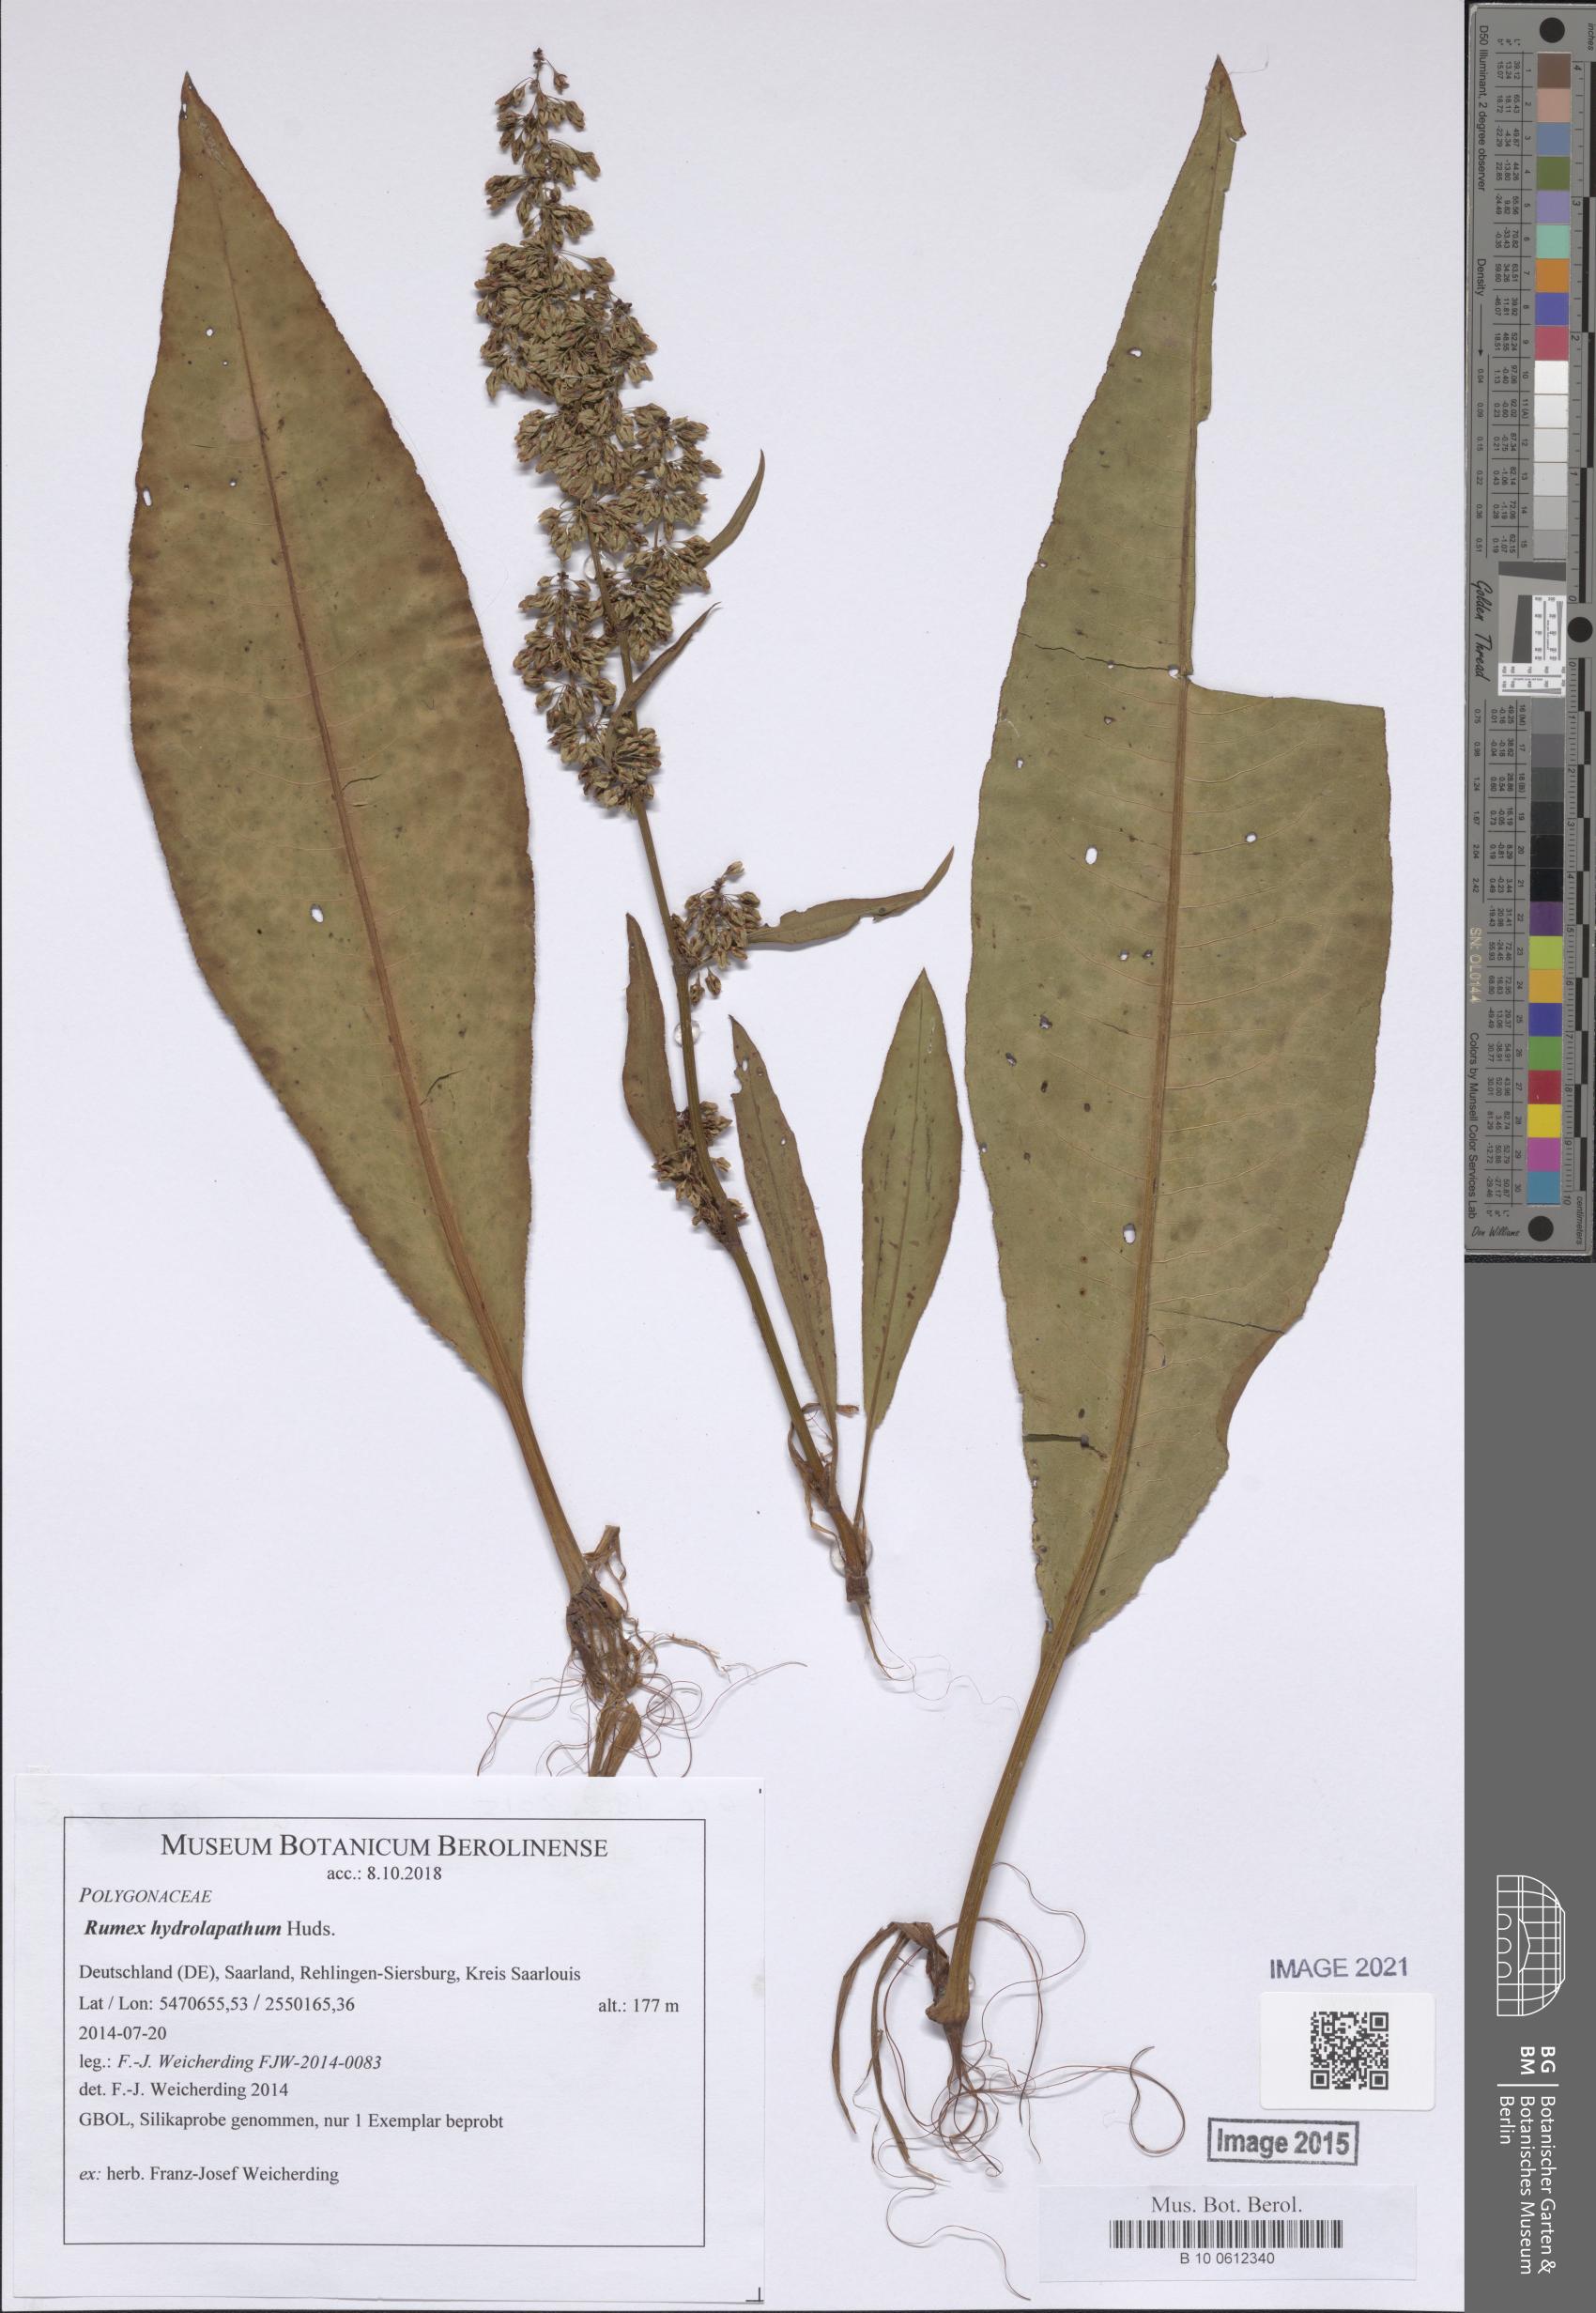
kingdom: Plantae
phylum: Tracheophyta
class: Magnoliopsida
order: Caryophyllales
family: Polygonaceae
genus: Rumex
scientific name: Rumex hydrolapathum
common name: Water dock
